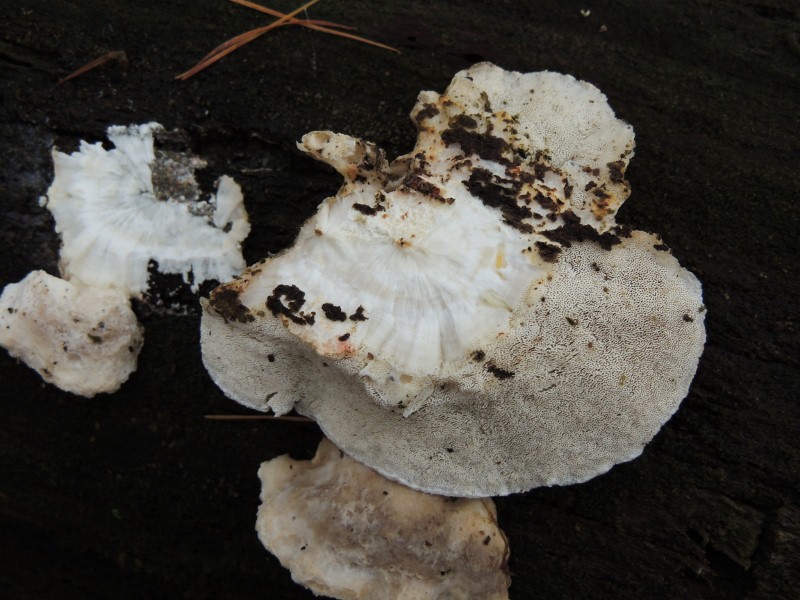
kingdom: Fungi
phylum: Basidiomycota
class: Agaricomycetes
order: Polyporales
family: Dacryobolaceae
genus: Postia
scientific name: Postia
